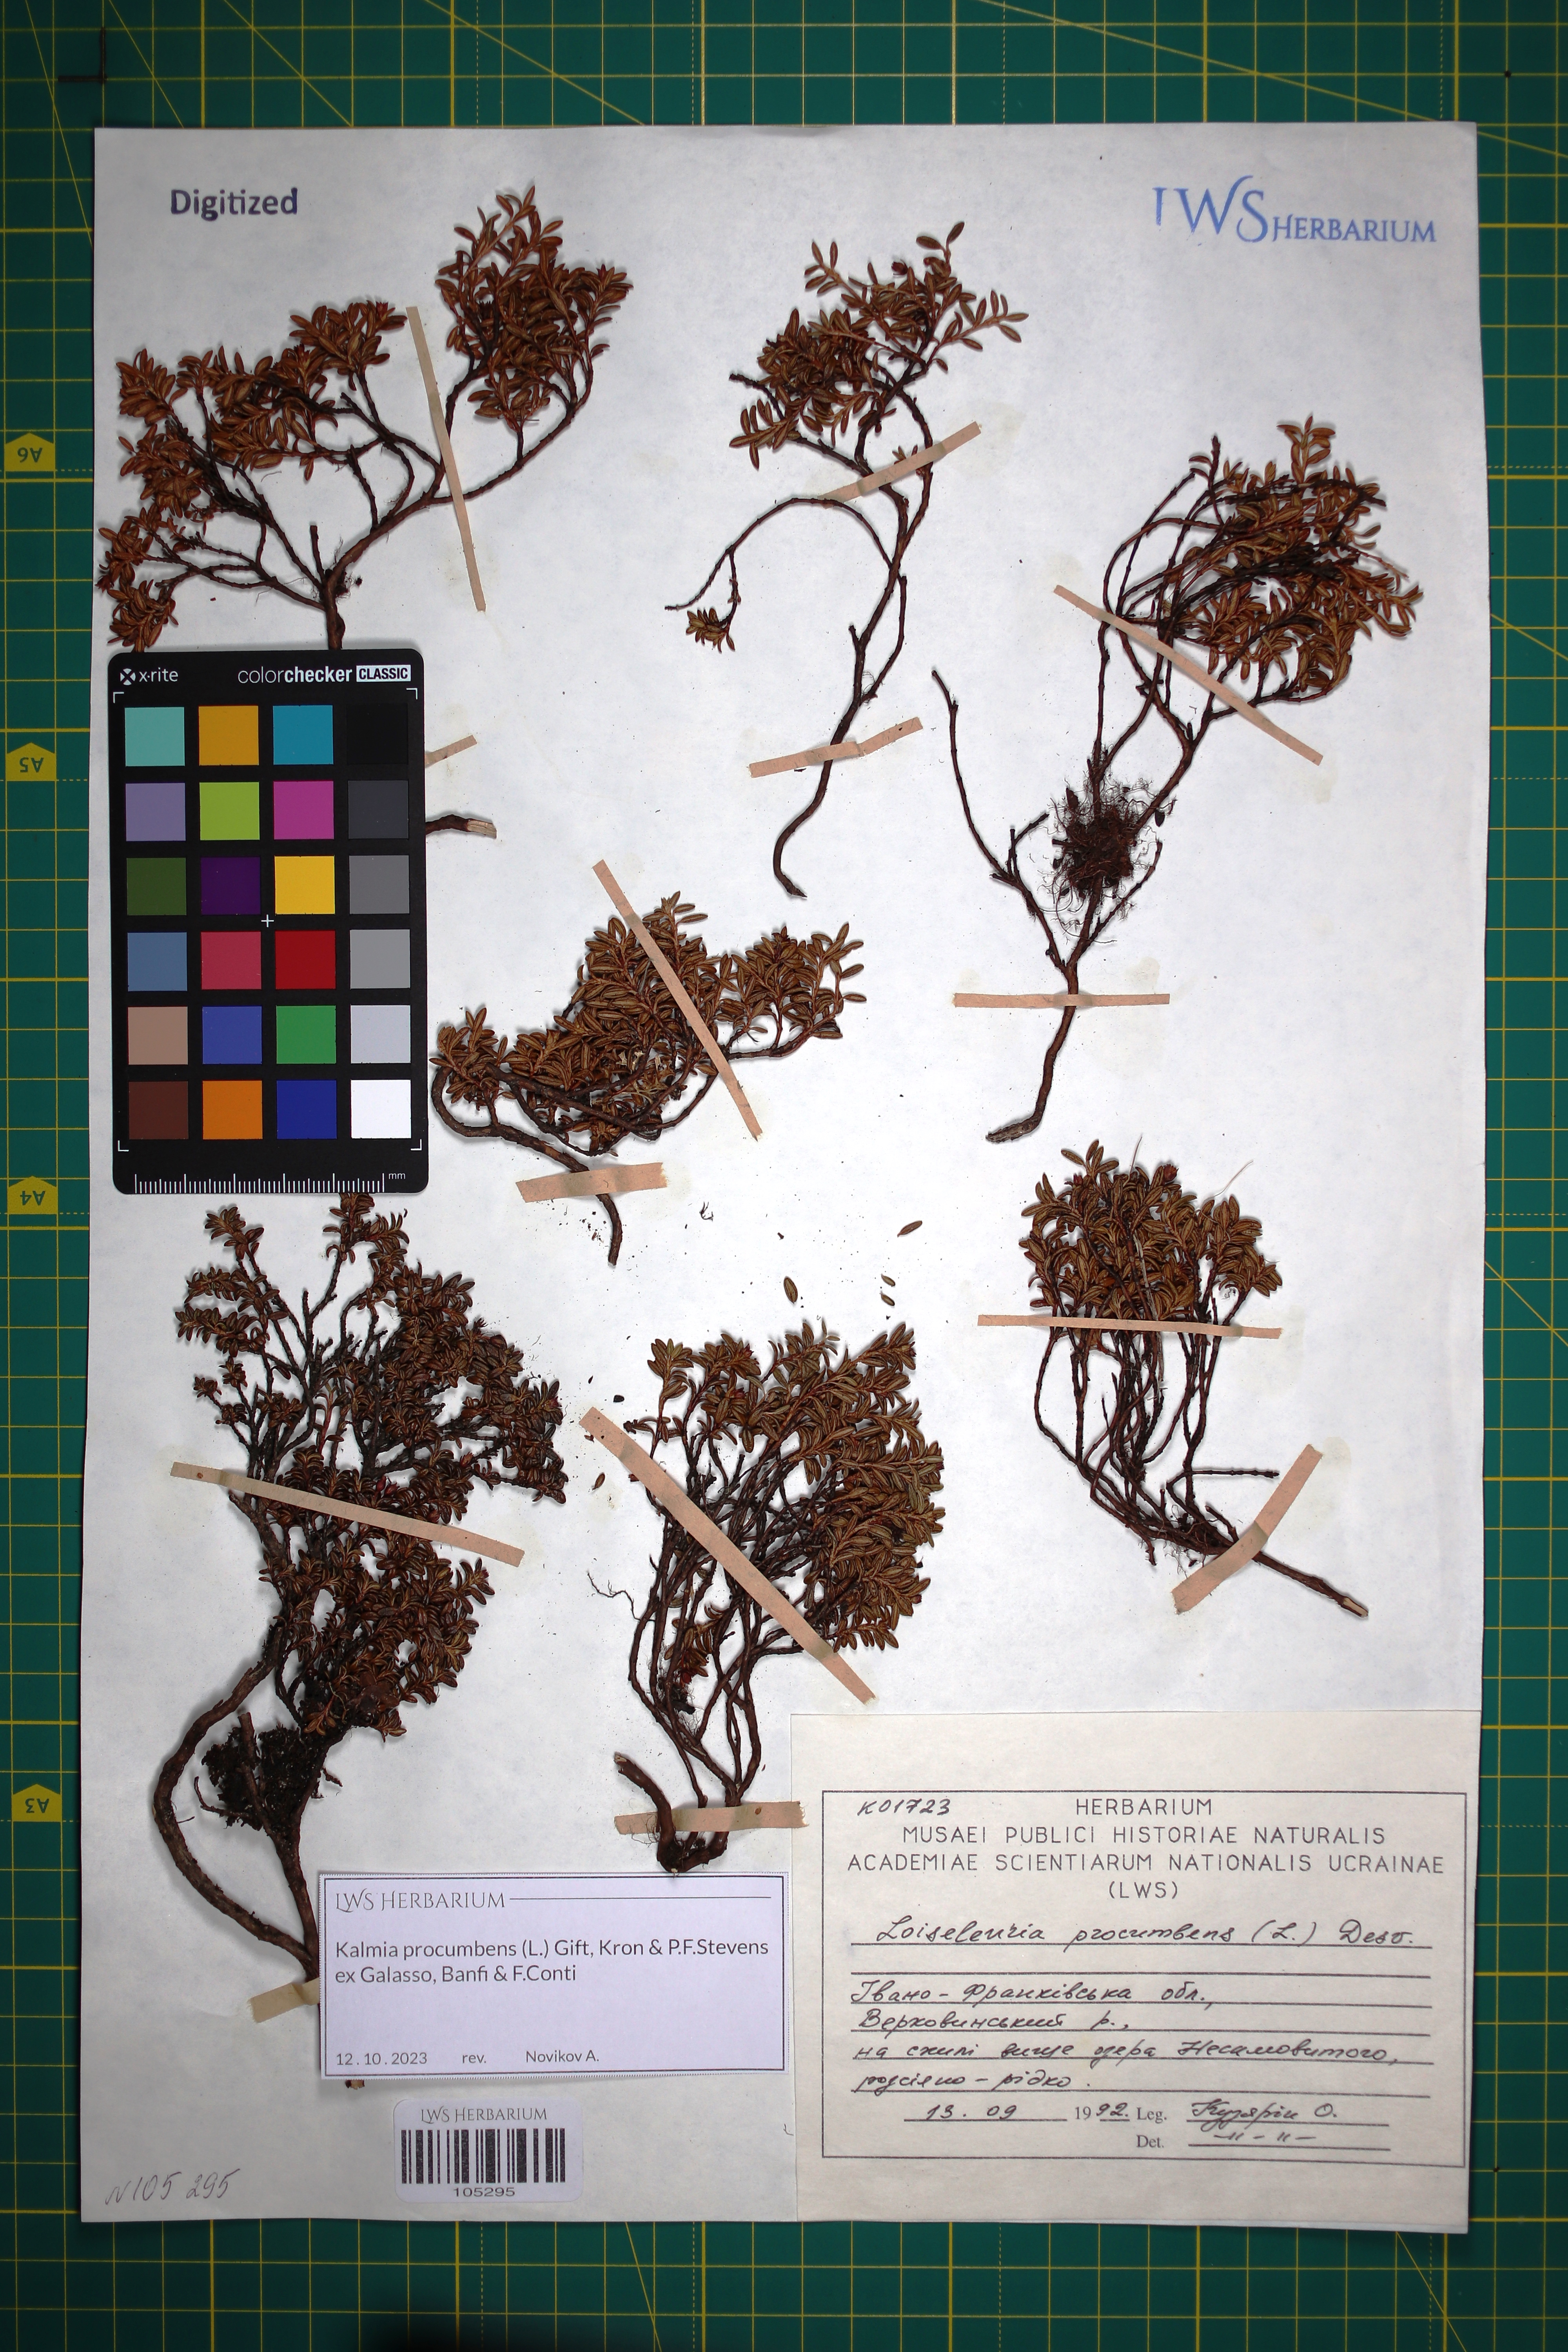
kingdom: Plantae
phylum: Tracheophyta
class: Magnoliopsida
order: Ericales
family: Ericaceae
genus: Kalmia
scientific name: Kalmia procumbens
